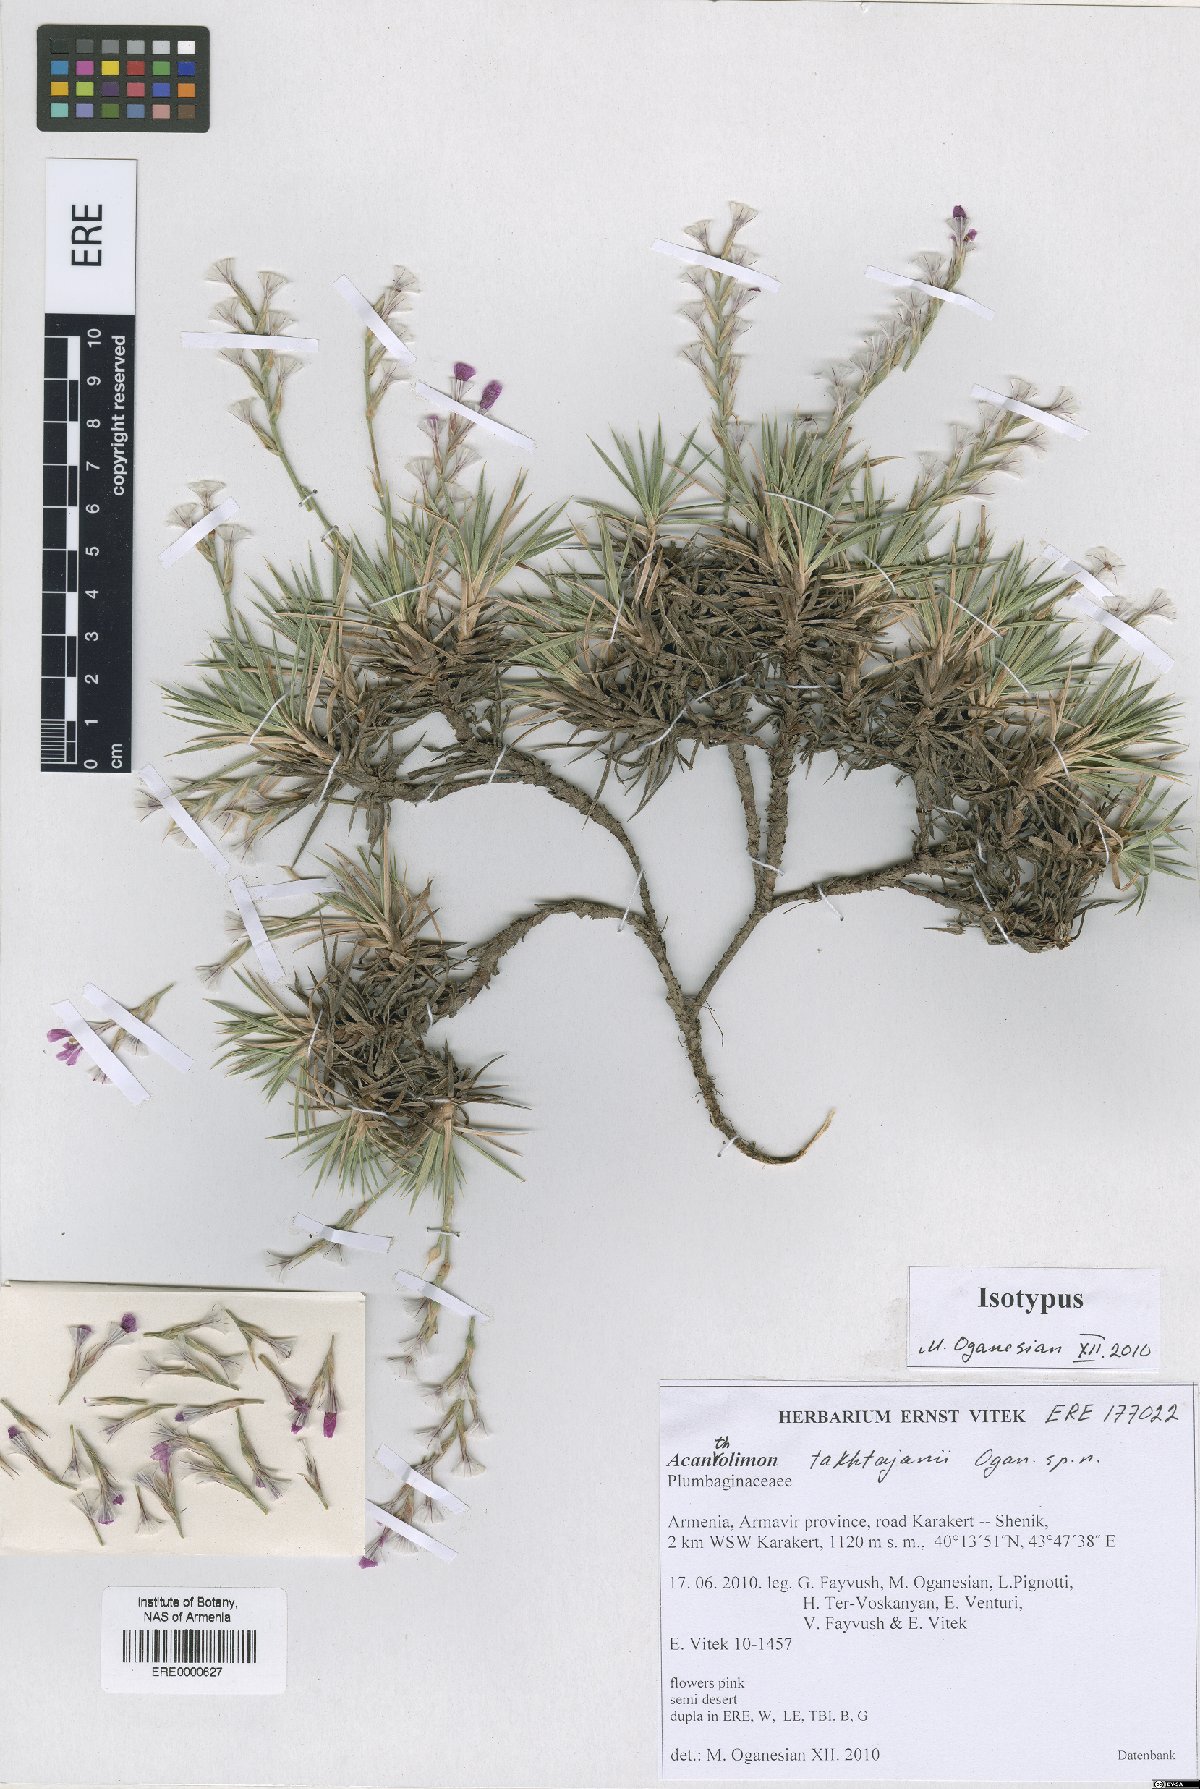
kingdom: Plantae
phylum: Tracheophyta
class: Magnoliopsida
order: Caryophyllales
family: Plumbaginaceae
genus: Acantholimon
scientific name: Acantholimon takhtajanii
